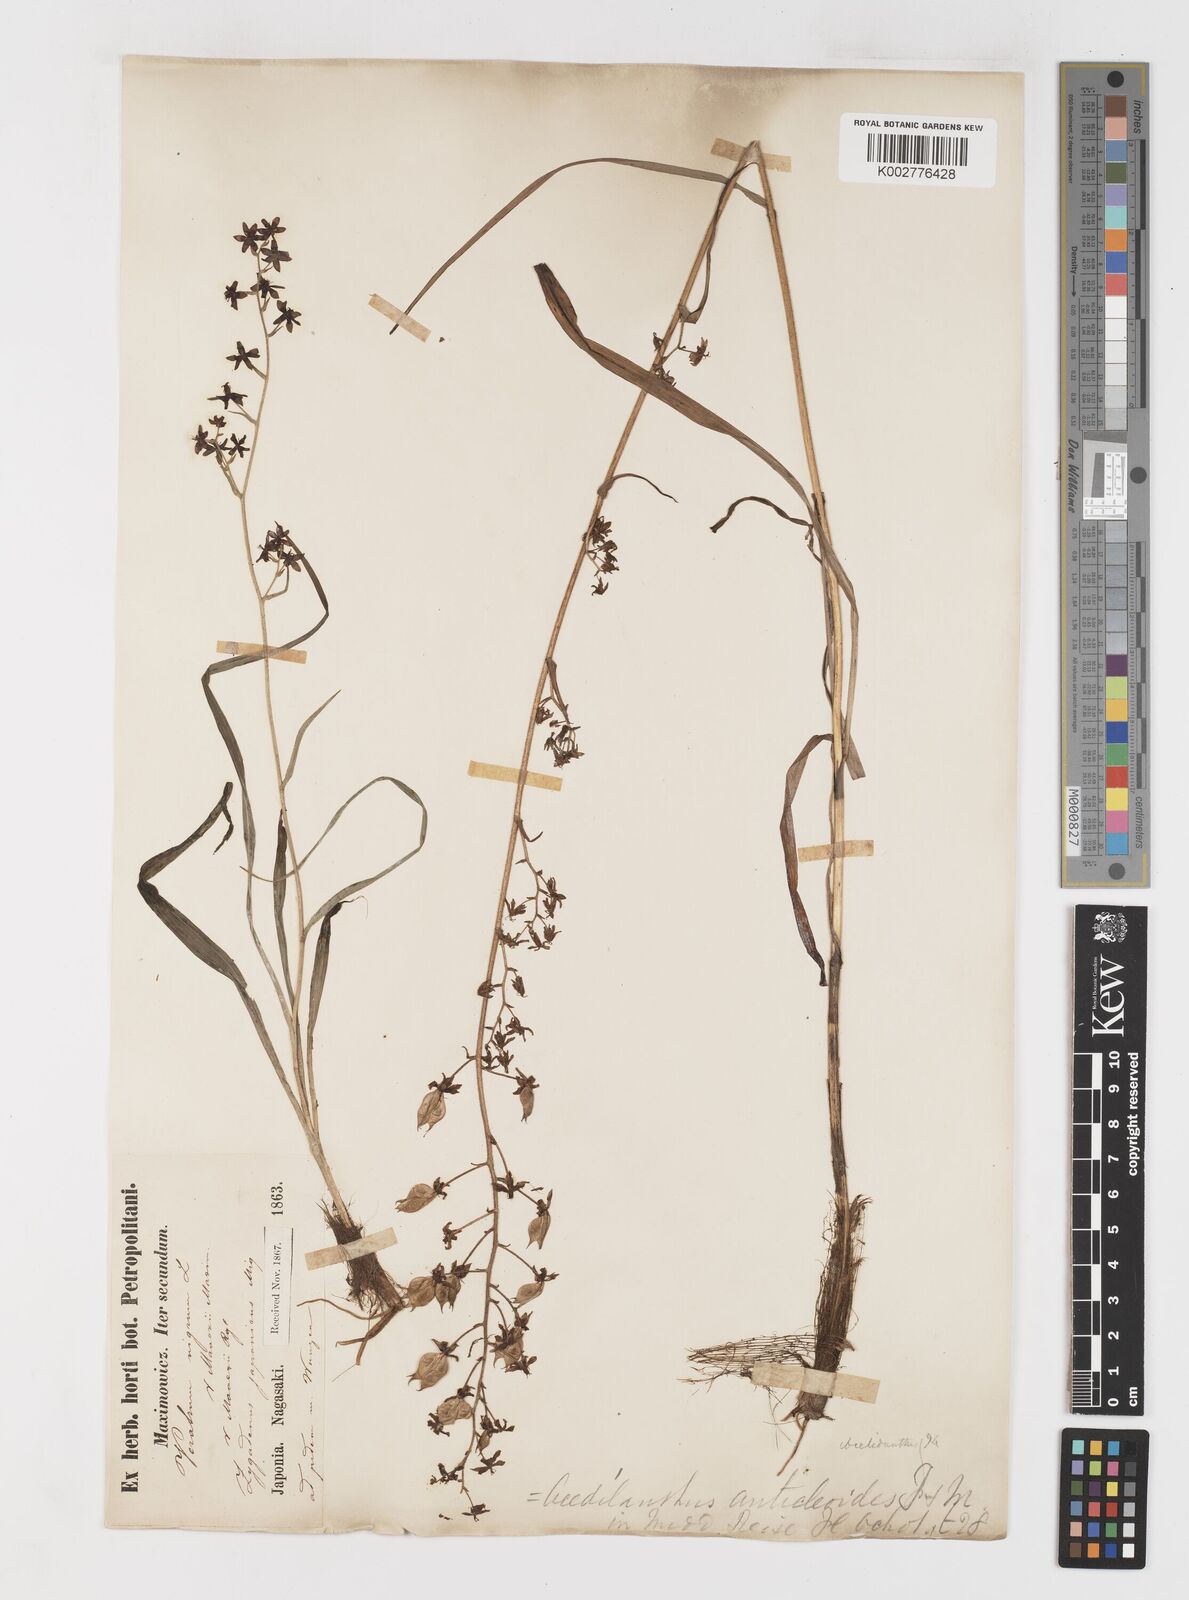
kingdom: Plantae
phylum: Tracheophyta
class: Liliopsida
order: Liliales
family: Melanthiaceae
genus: Veratrum
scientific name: Veratrum maackii
